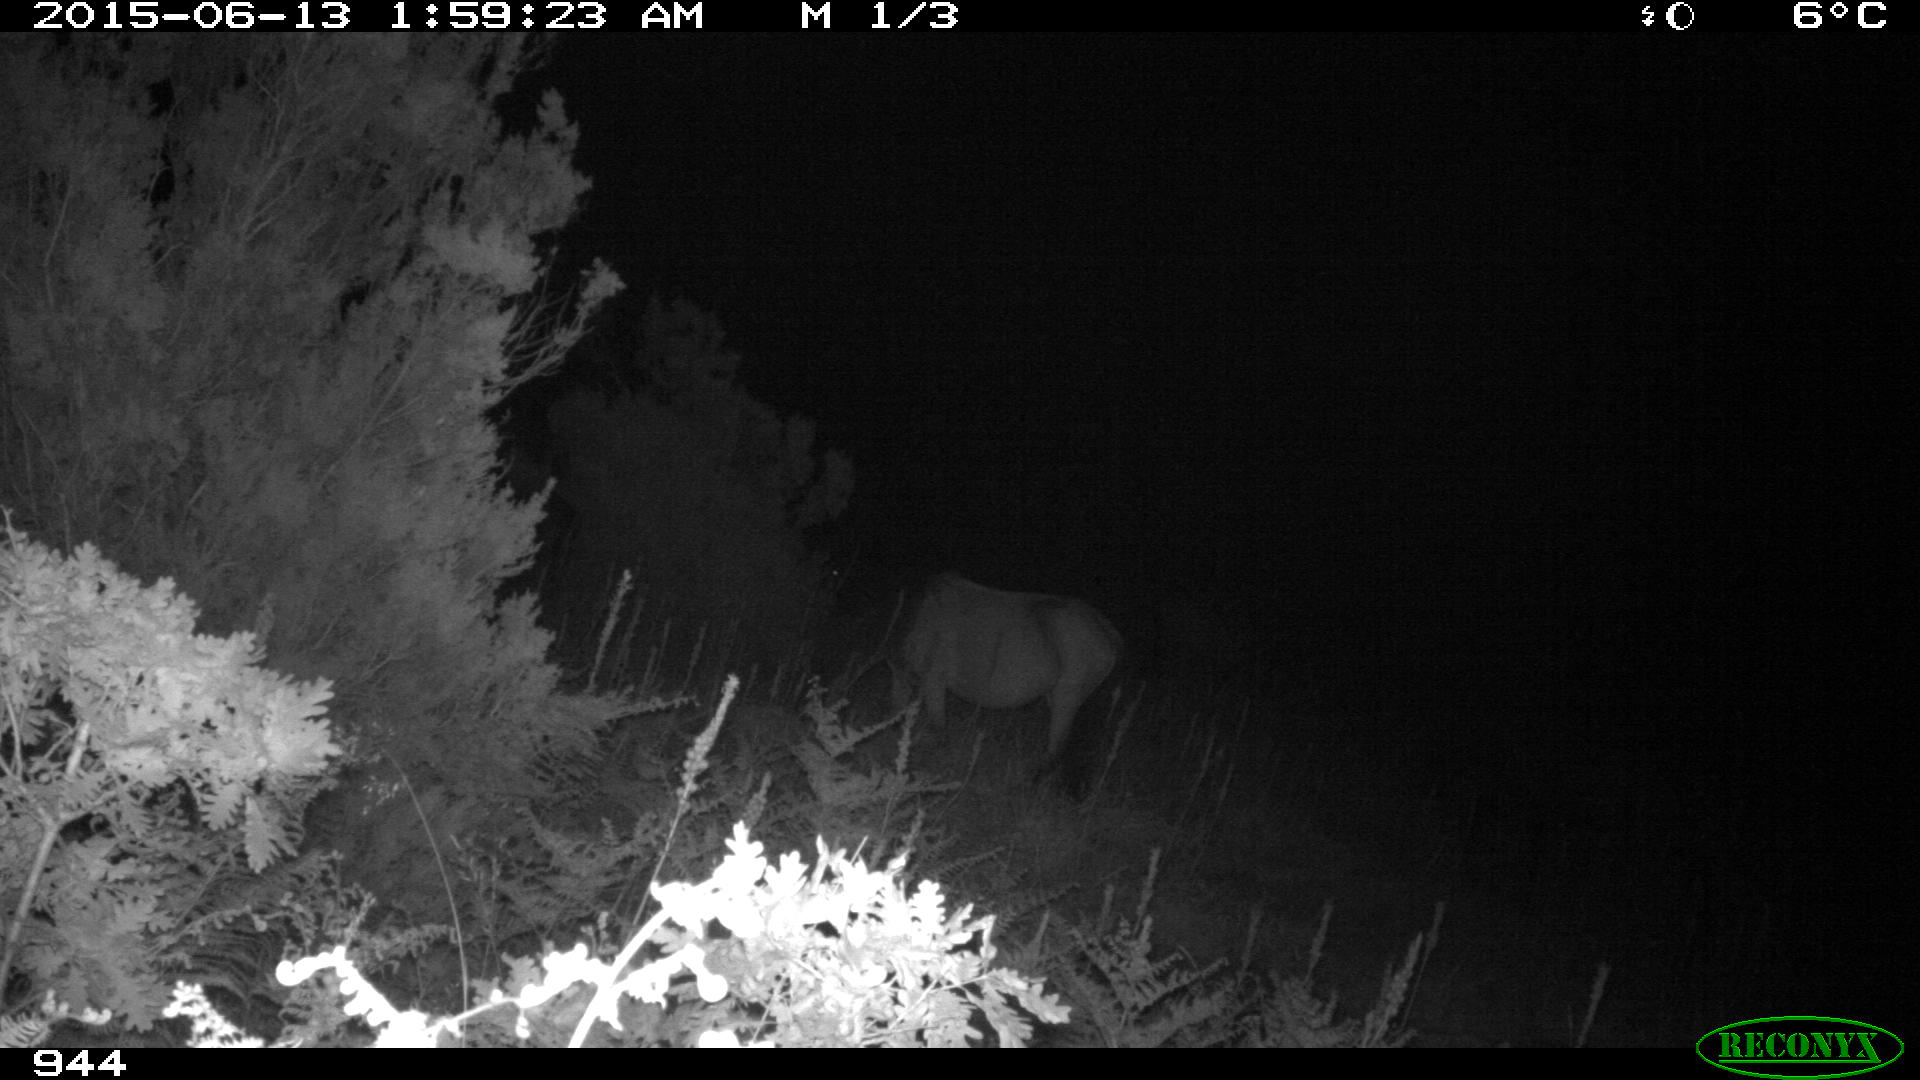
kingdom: Animalia
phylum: Chordata
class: Mammalia
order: Perissodactyla
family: Equidae
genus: Equus
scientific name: Equus caballus
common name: Horse
